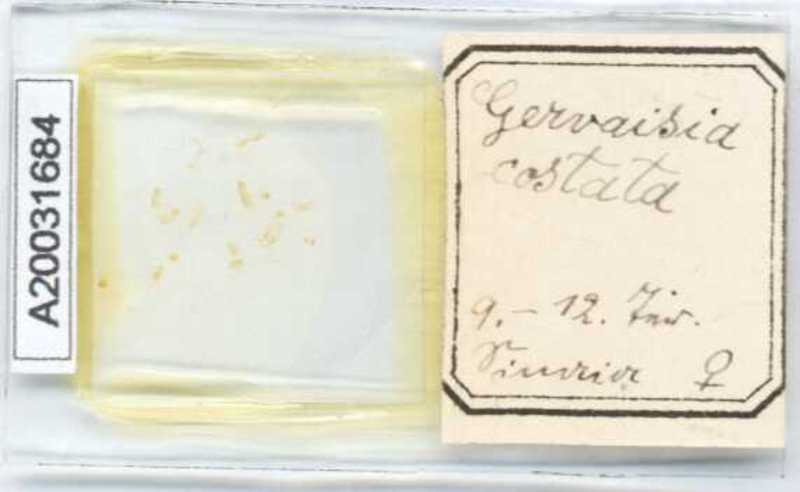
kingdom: Animalia
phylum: Arthropoda
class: Diplopoda
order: Glomerida
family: Glomeridae
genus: Trachysphaera
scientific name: Trachysphaera costata
